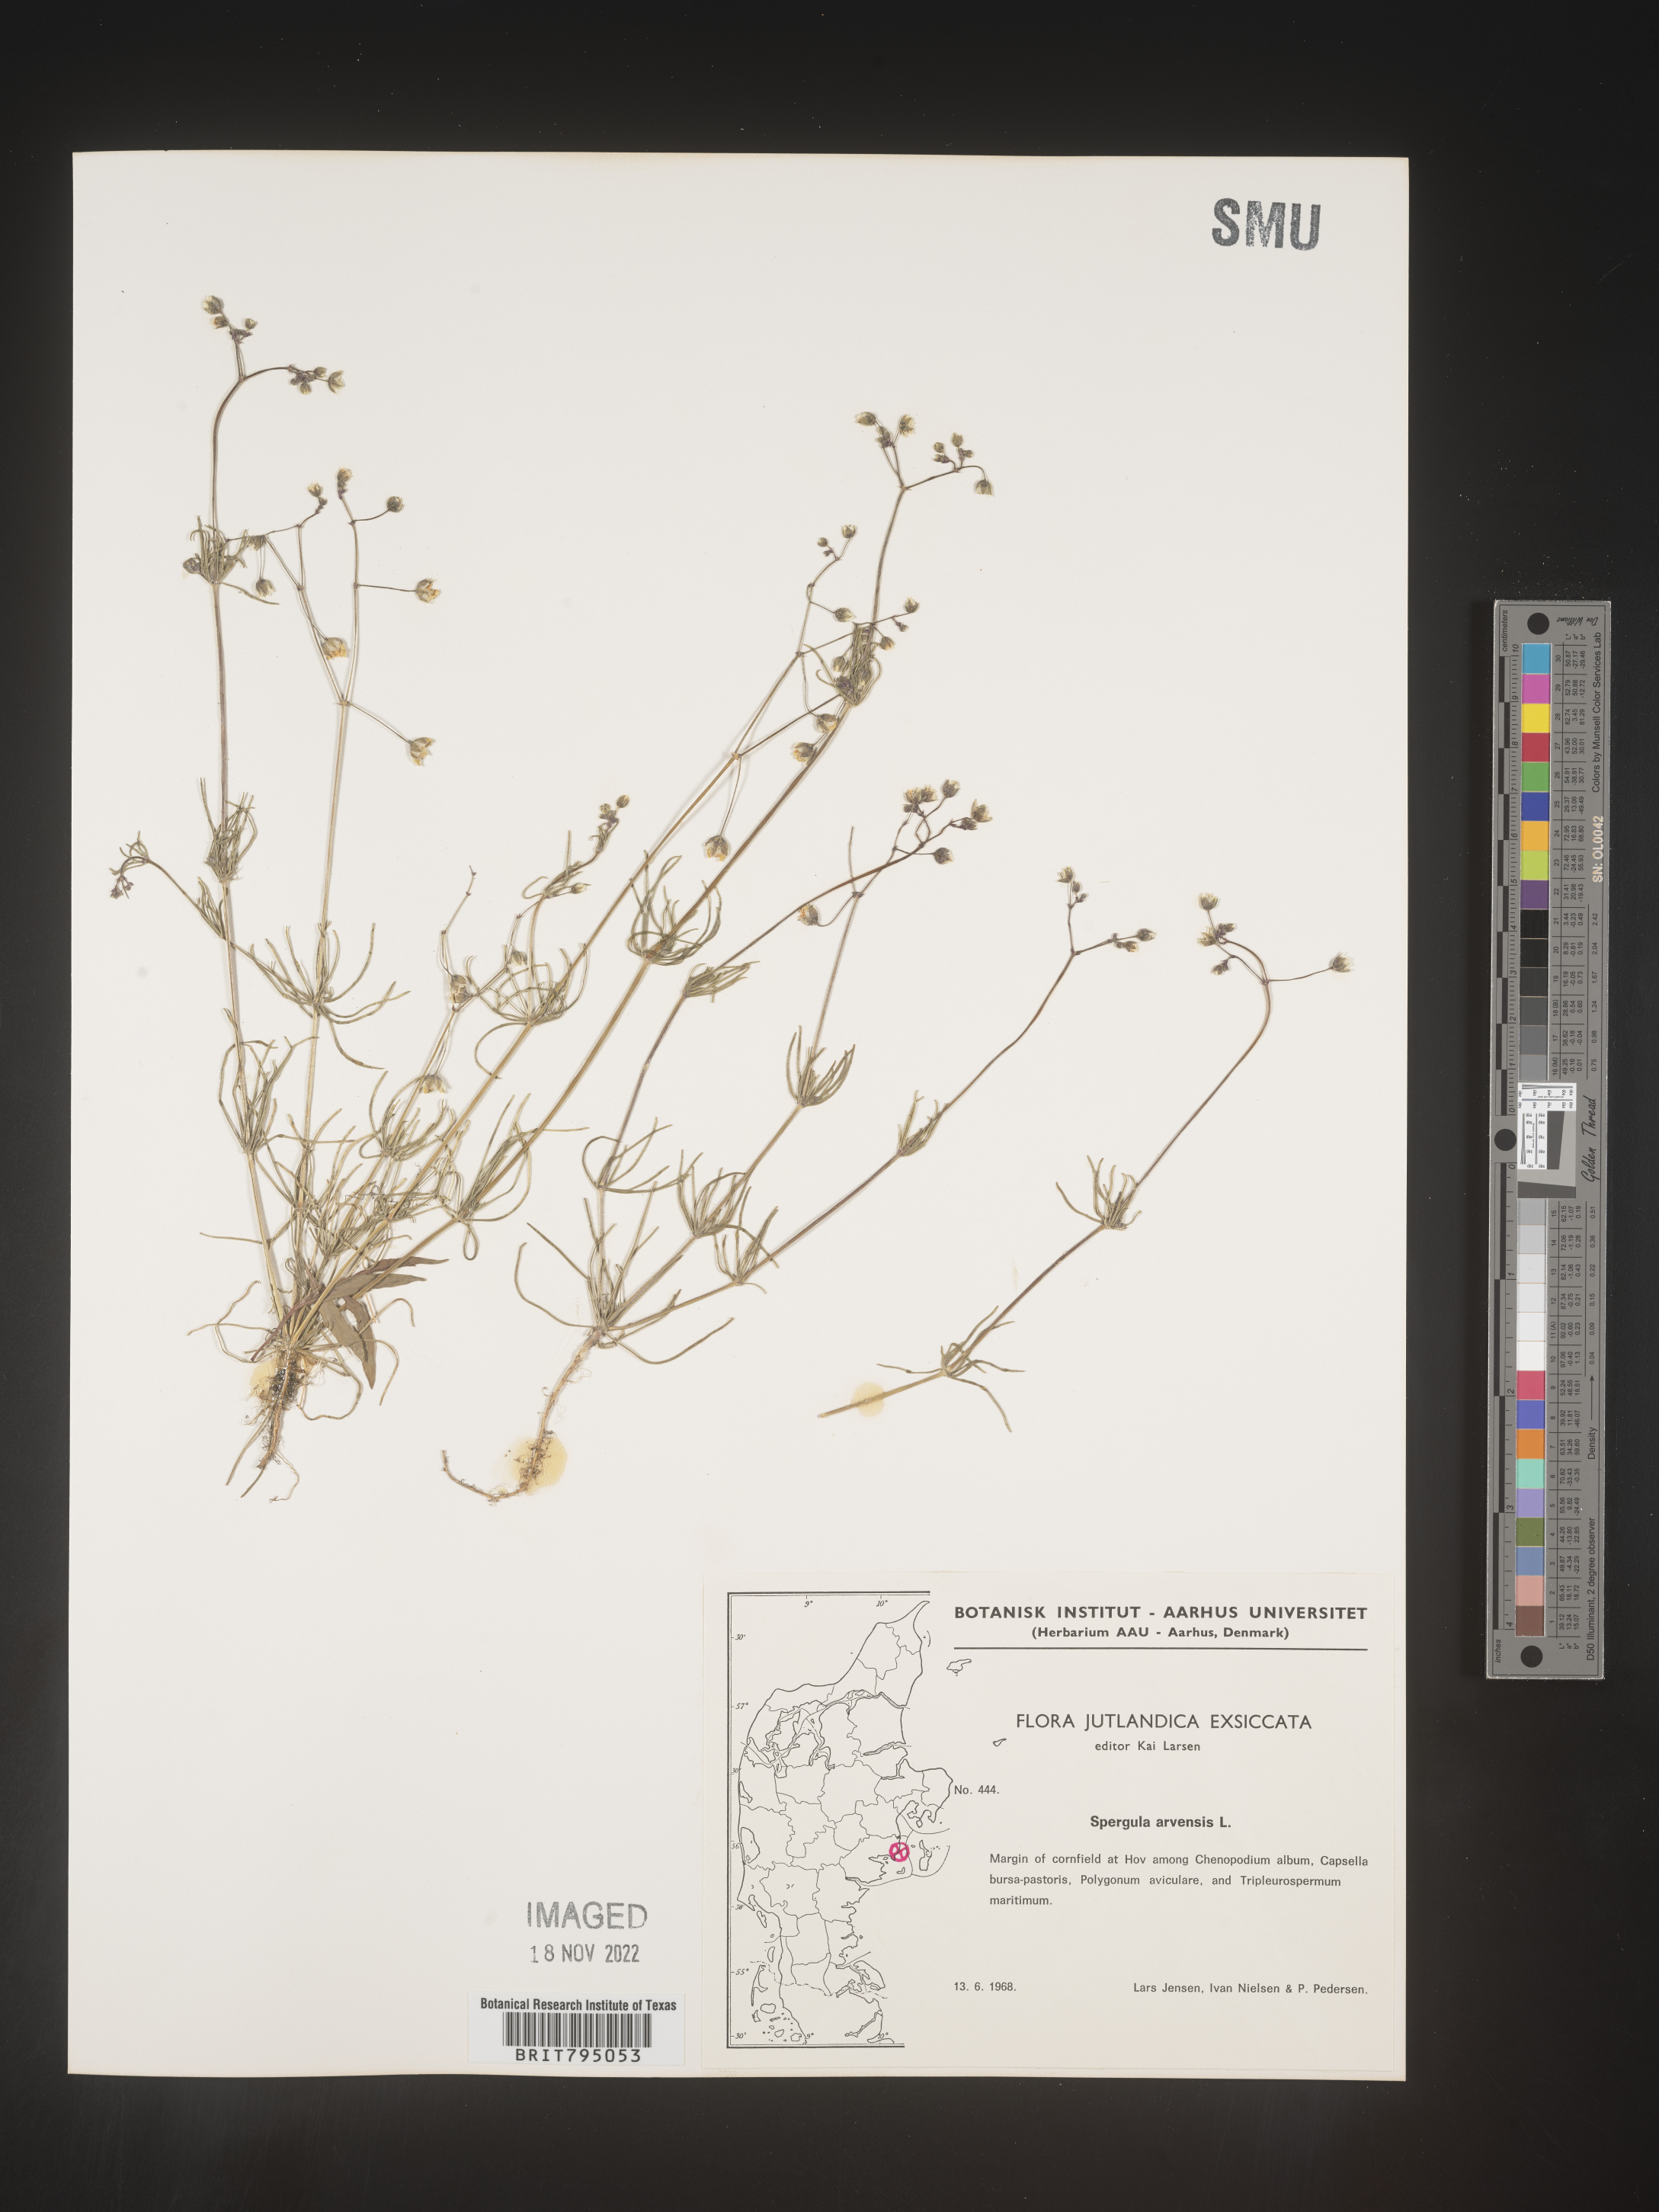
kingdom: Plantae
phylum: Tracheophyta
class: Magnoliopsida
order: Caryophyllales
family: Caryophyllaceae
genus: Spergula
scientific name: Spergula arvensis
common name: Corn spurrey
